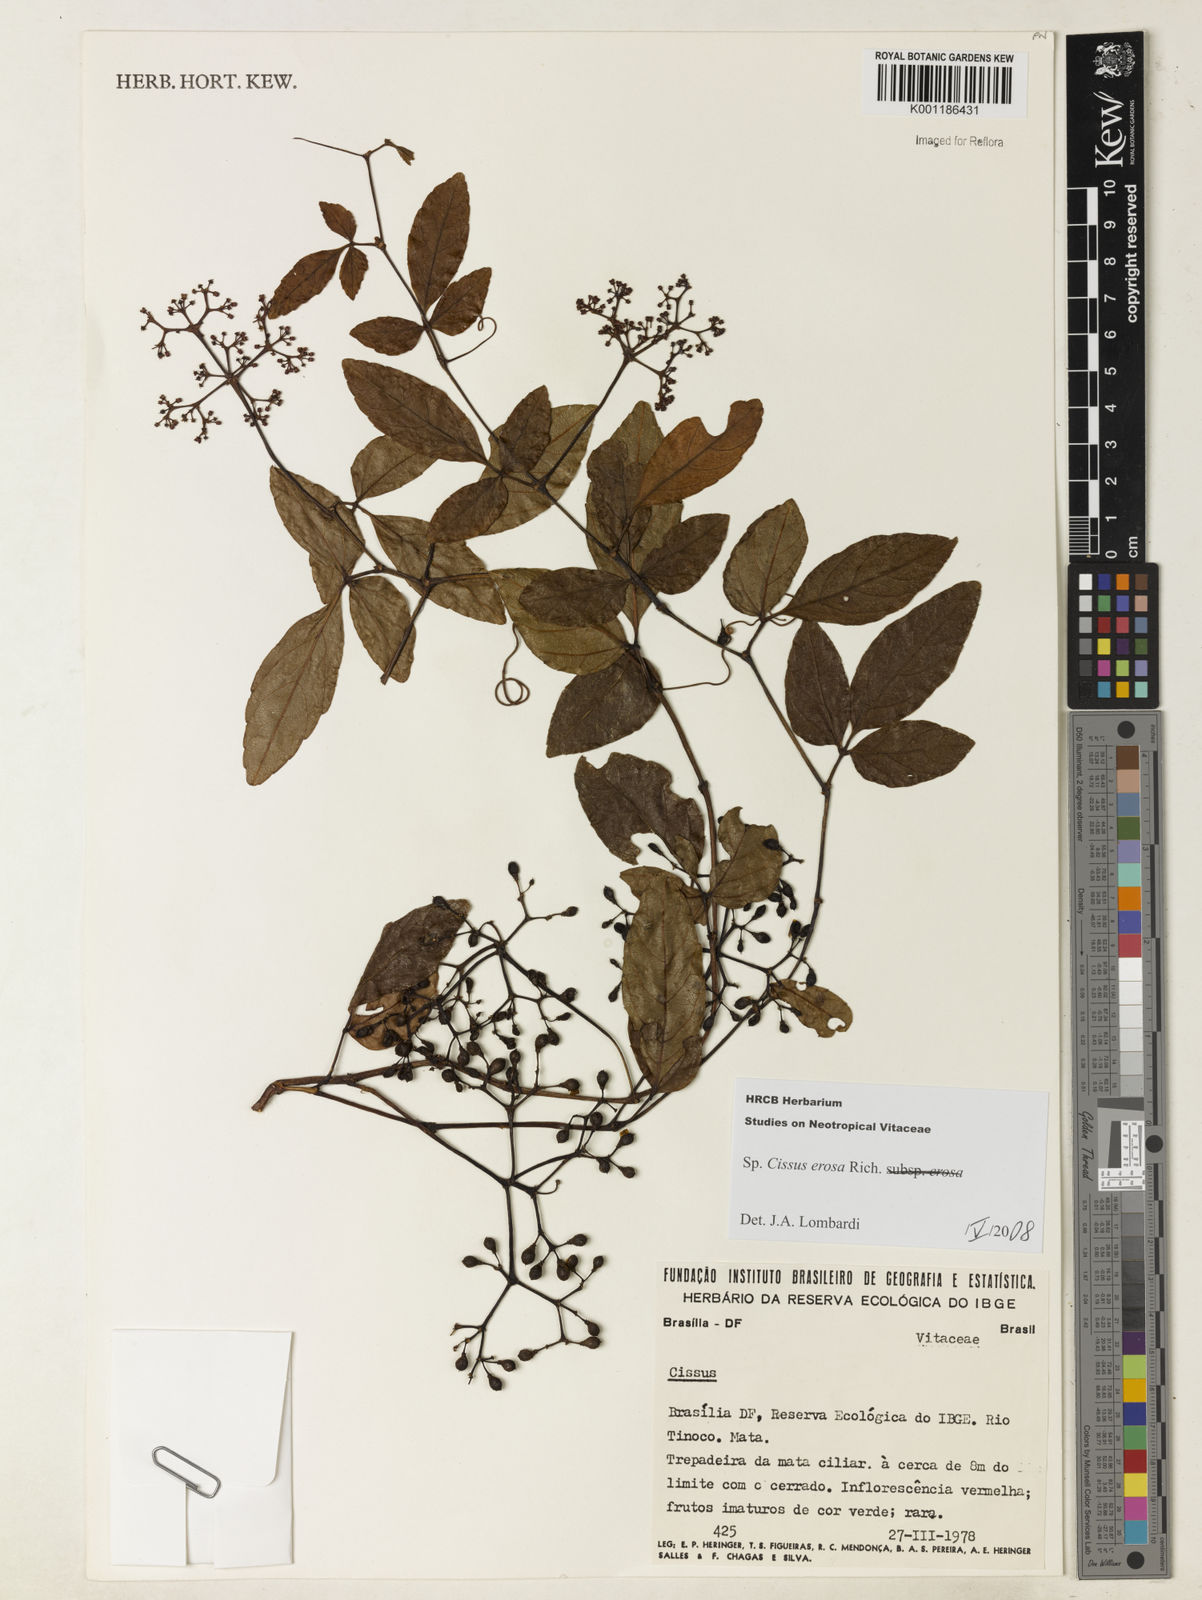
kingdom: Plantae
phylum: Tracheophyta
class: Magnoliopsida
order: Vitales
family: Vitaceae
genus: Cissus
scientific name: Cissus erosa
